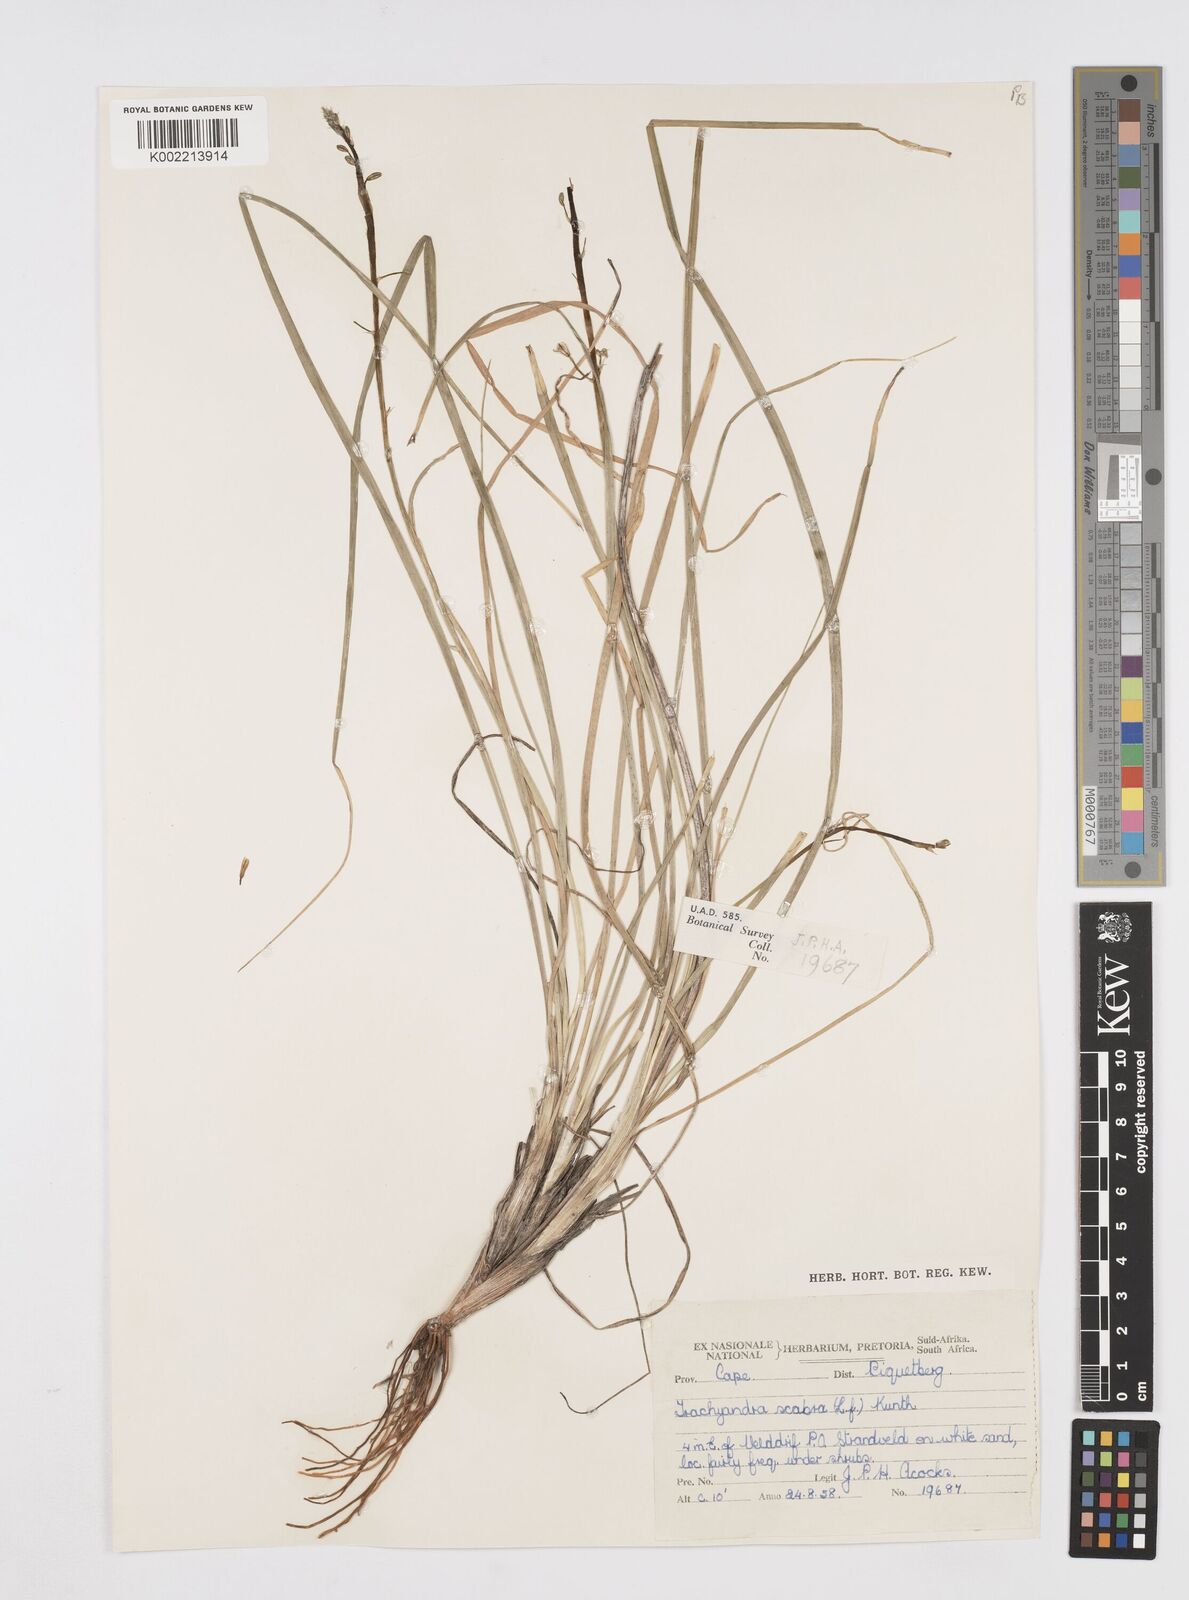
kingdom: Plantae
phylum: Tracheophyta
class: Liliopsida
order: Asparagales
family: Asphodelaceae
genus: Trachyandra
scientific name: Trachyandra scabra
